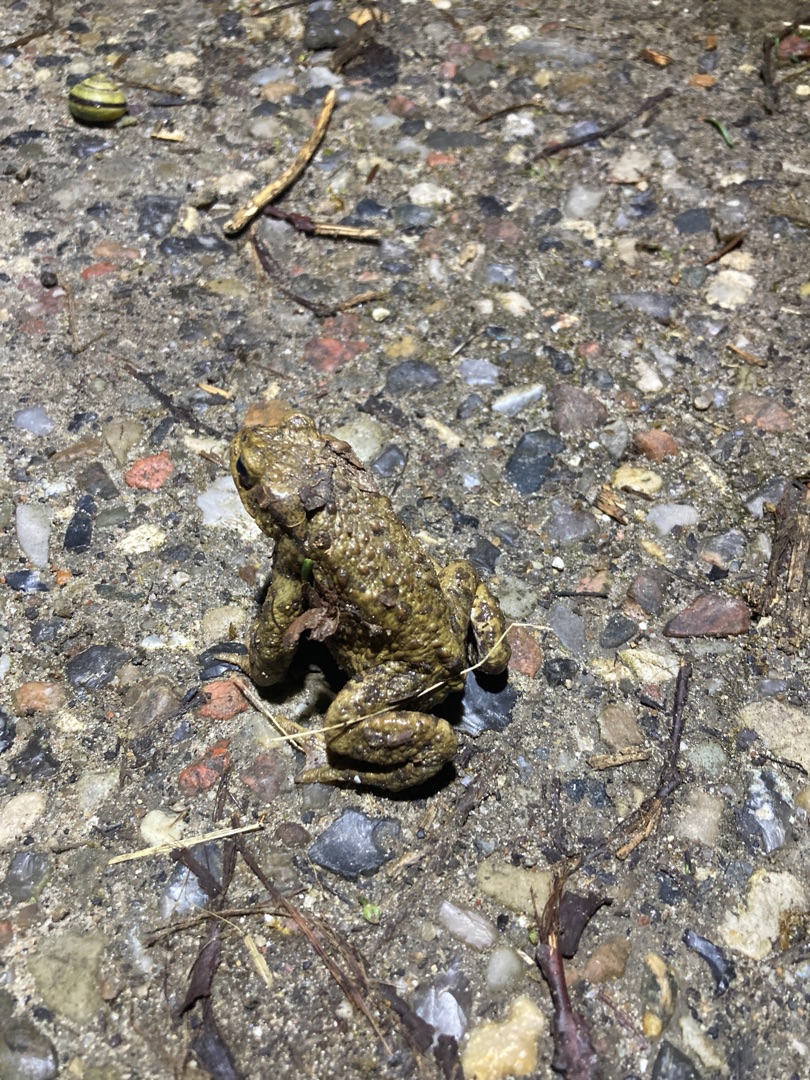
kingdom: Animalia
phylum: Chordata
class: Amphibia
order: Anura
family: Bufonidae
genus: Bufo
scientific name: Bufo bufo
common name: Skrubtudse
